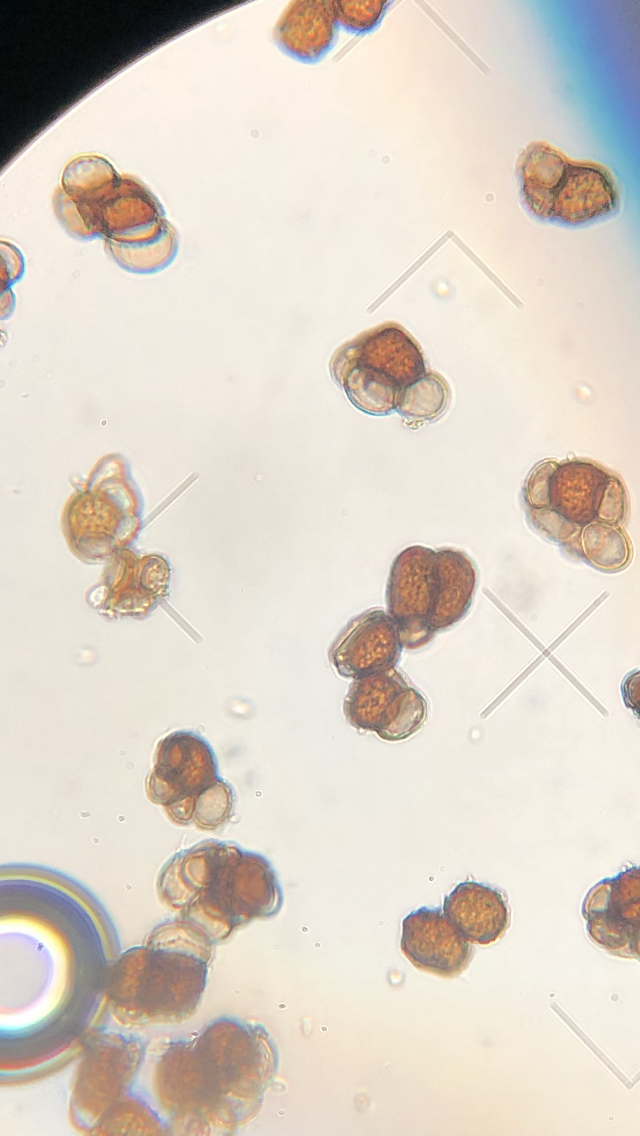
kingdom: Fungi
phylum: Basidiomycota
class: Ustilaginomycetes
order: Urocystidales
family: Urocystidaceae
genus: Urocystis
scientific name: Urocystis anemones
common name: anemone-brand
